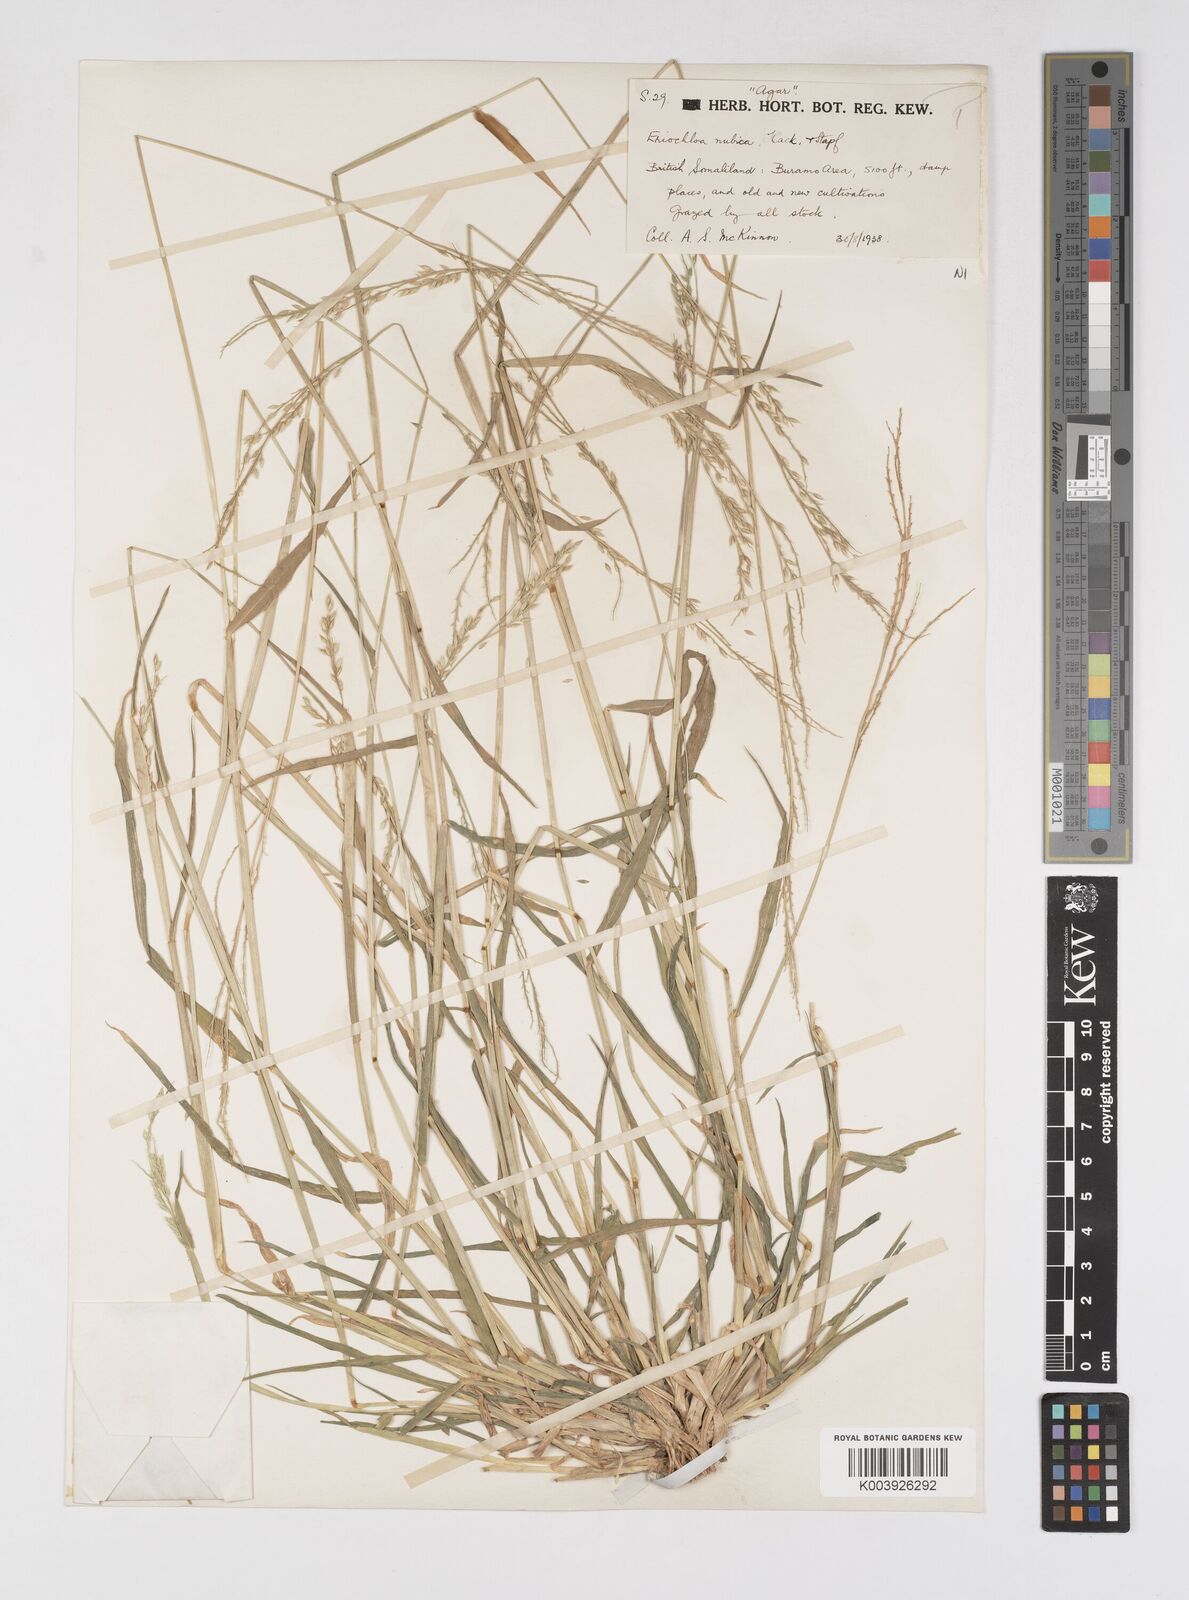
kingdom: Plantae
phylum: Tracheophyta
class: Liliopsida
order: Poales
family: Poaceae
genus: Eriochloa
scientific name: Eriochloa barbatus
